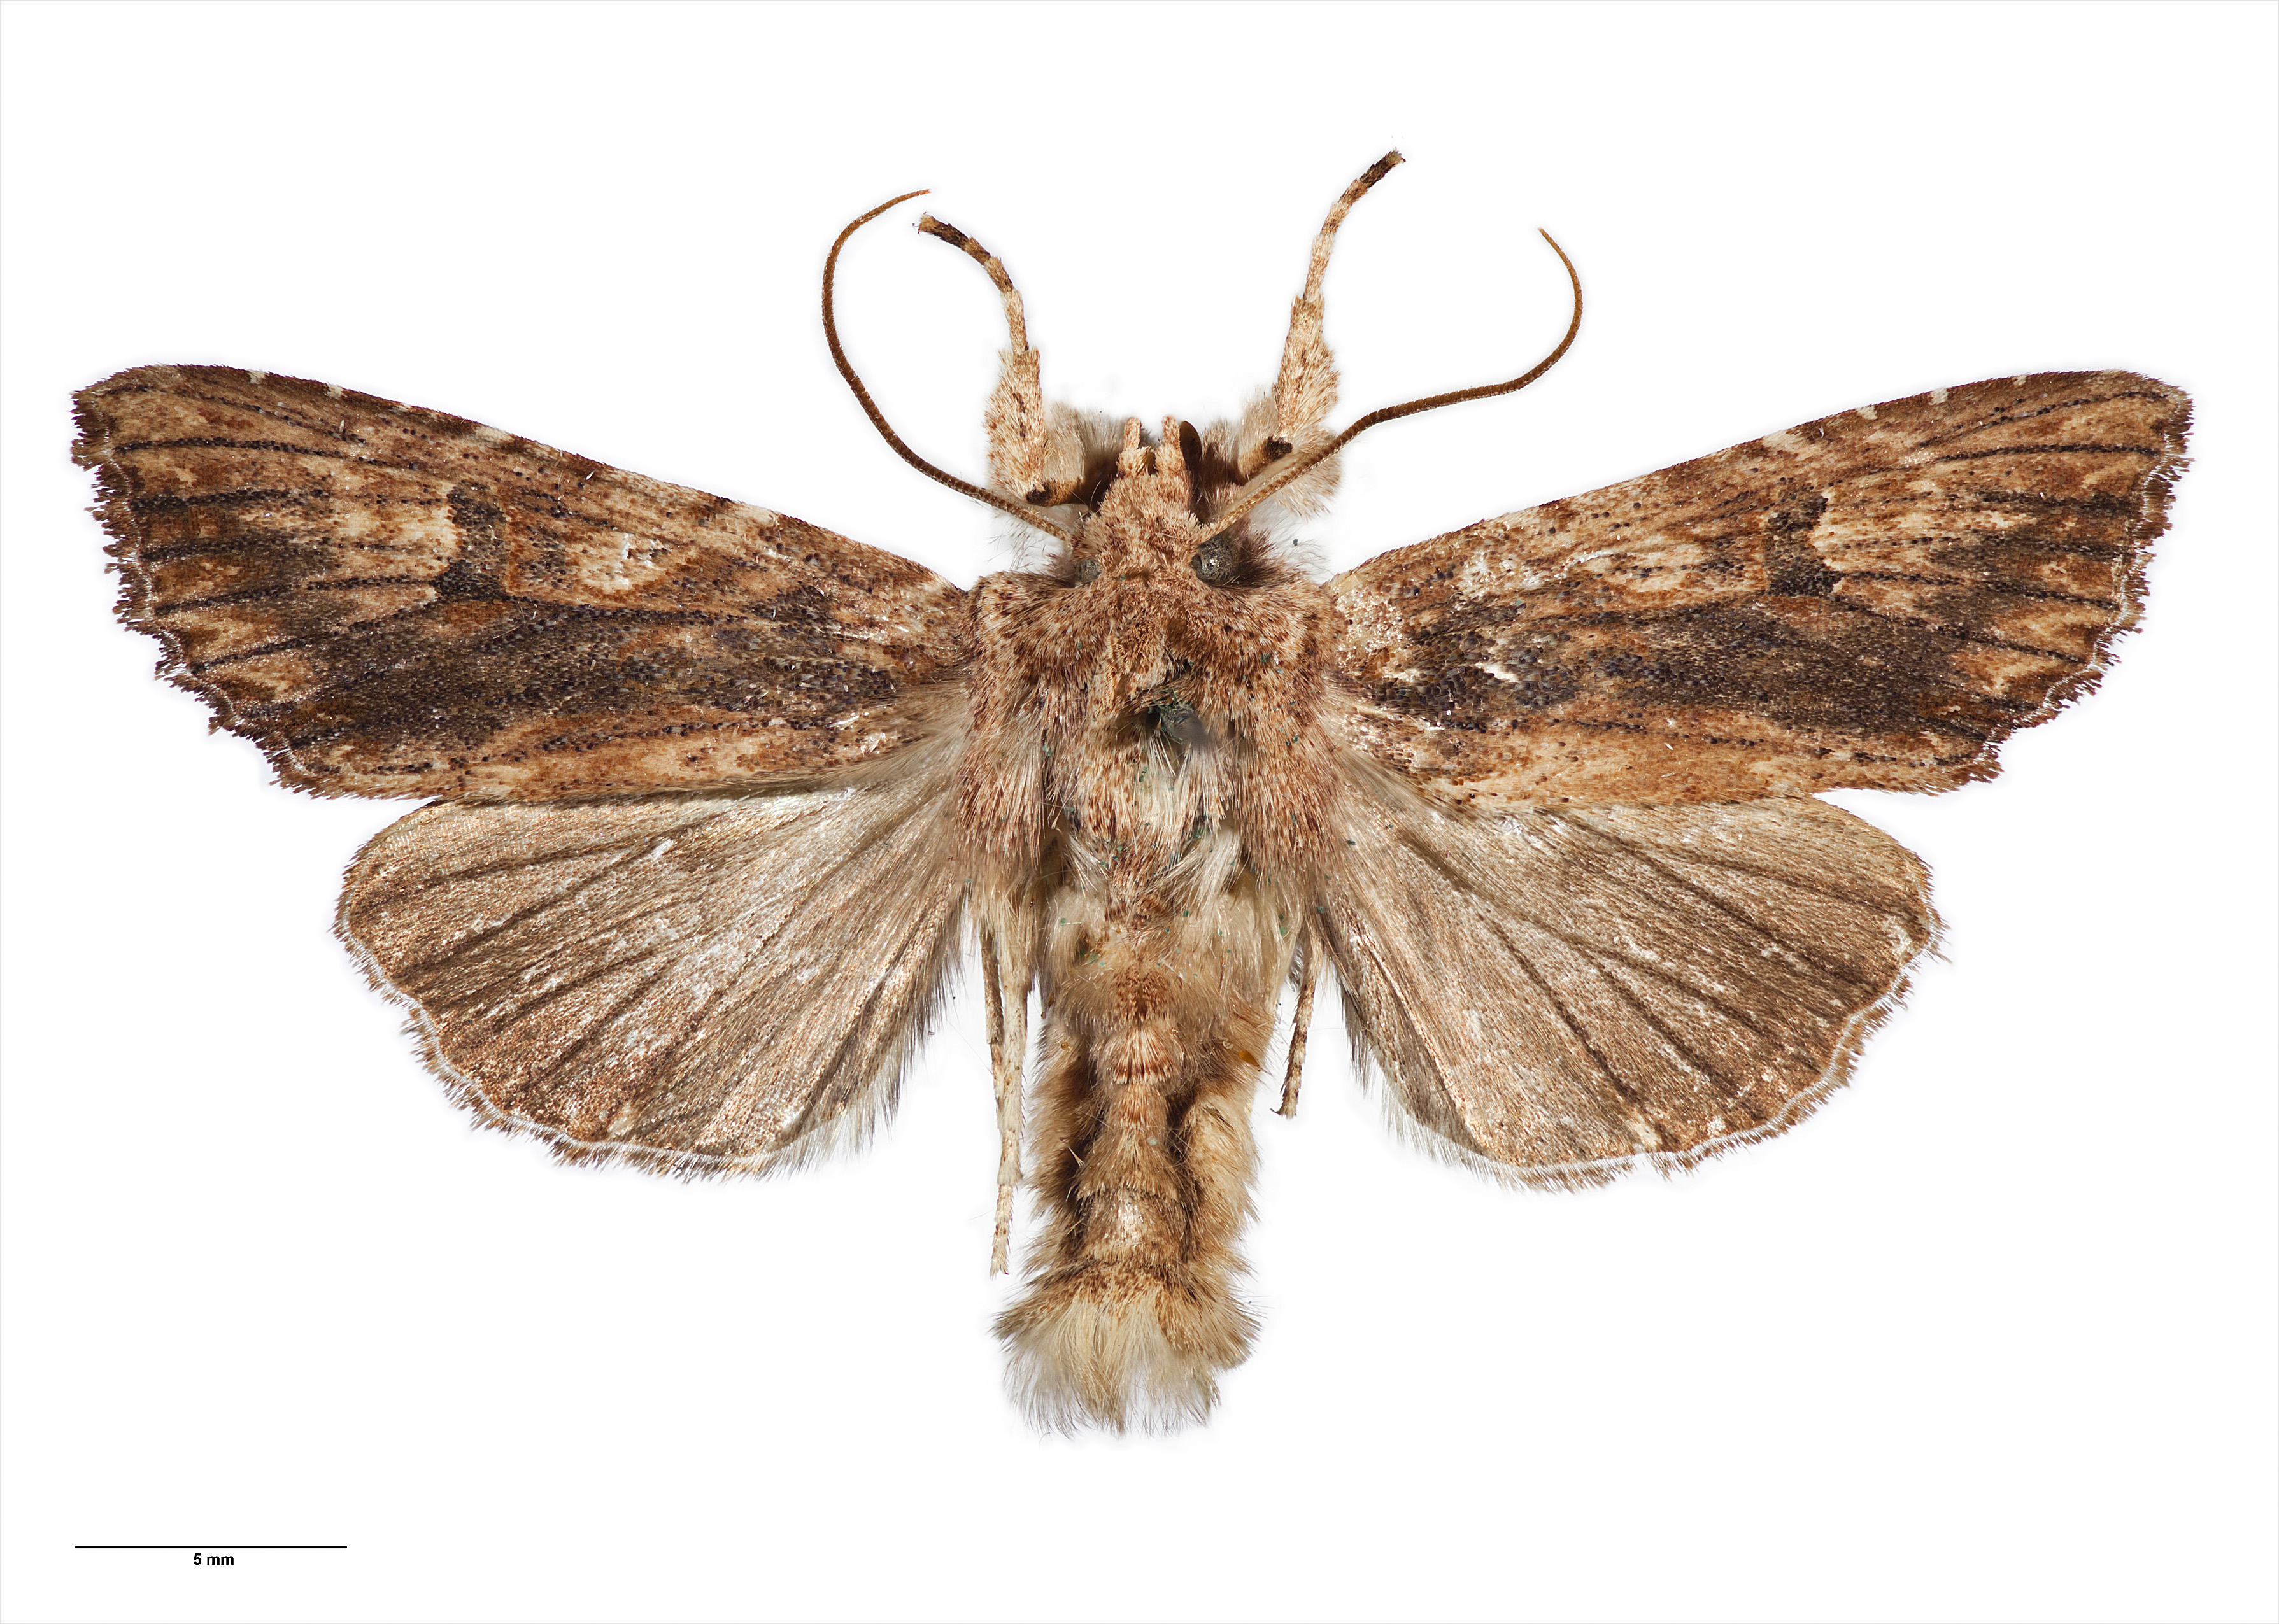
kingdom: Animalia
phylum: Arthropoda
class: Insecta
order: Lepidoptera
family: Noctuidae
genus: Meterana
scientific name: Meterana pascoei
